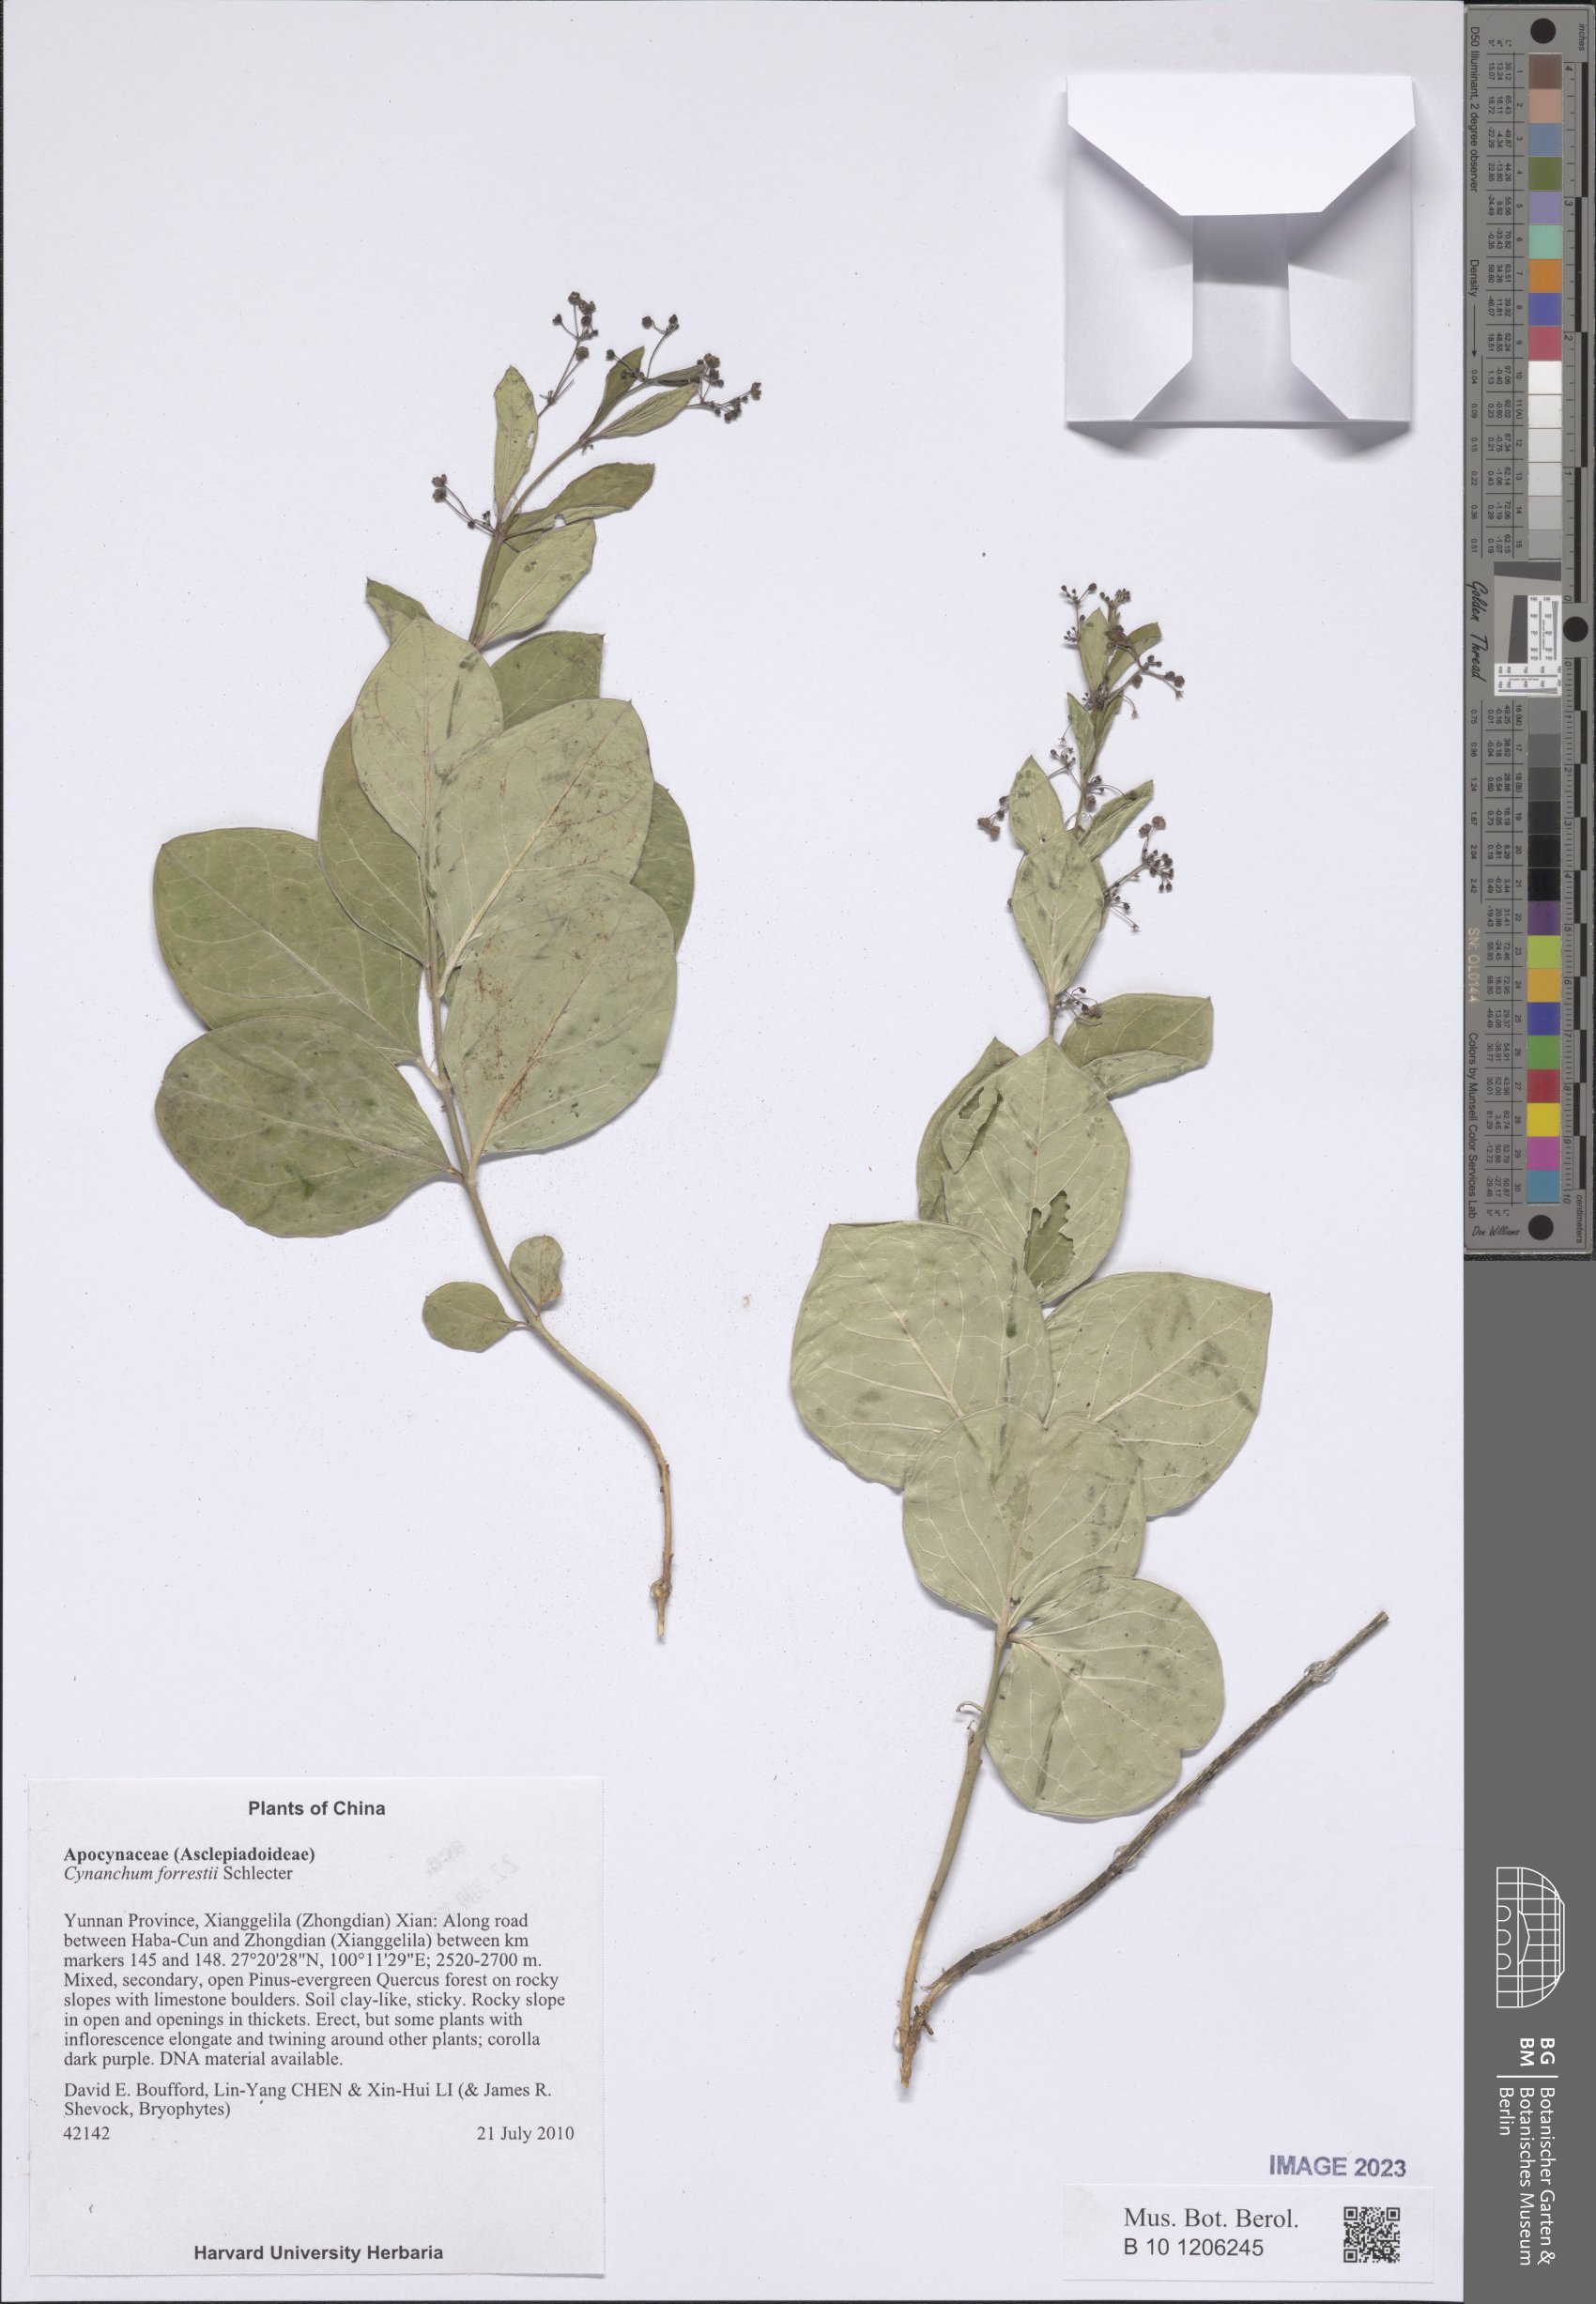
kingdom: Plantae
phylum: Tracheophyta
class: Magnoliopsida
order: Gentianales
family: Apocynaceae
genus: Vincetoxicum
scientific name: Vincetoxicum forrestii
